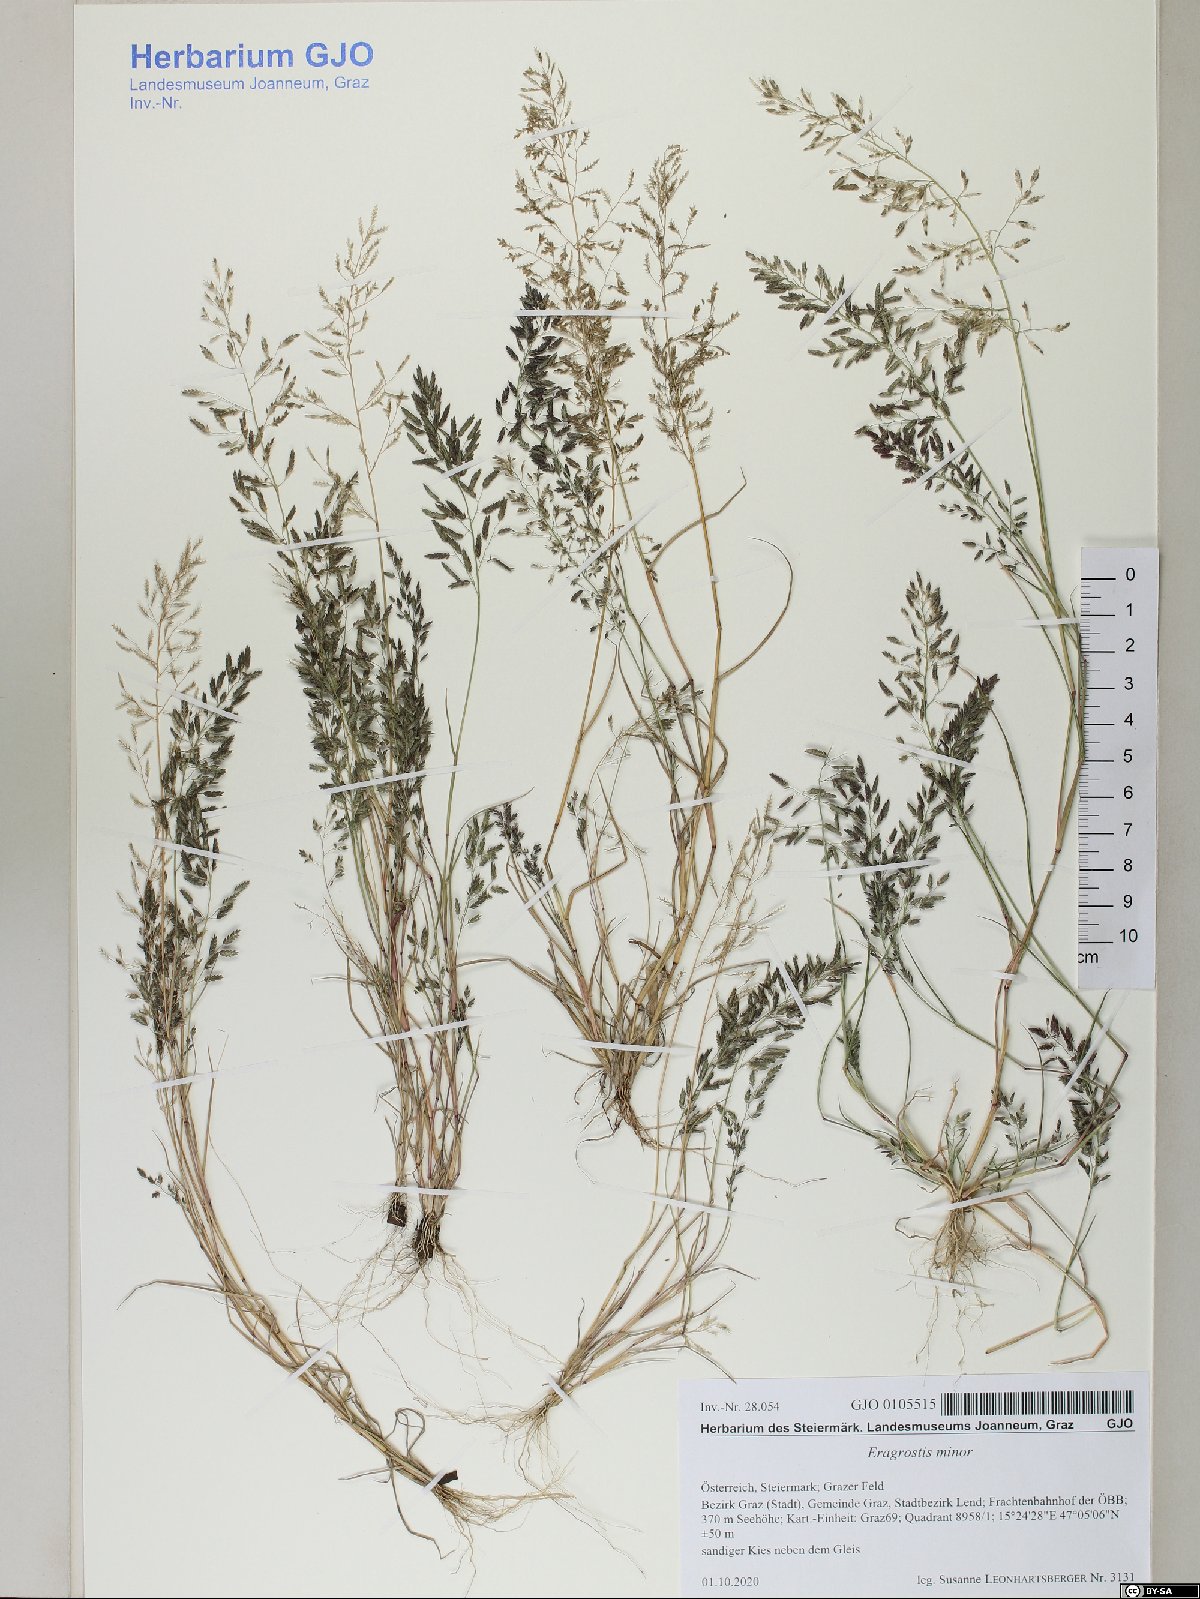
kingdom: Plantae
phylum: Tracheophyta
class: Liliopsida
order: Poales
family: Poaceae
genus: Eragrostis
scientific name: Eragrostis minor
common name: Small love-grass
